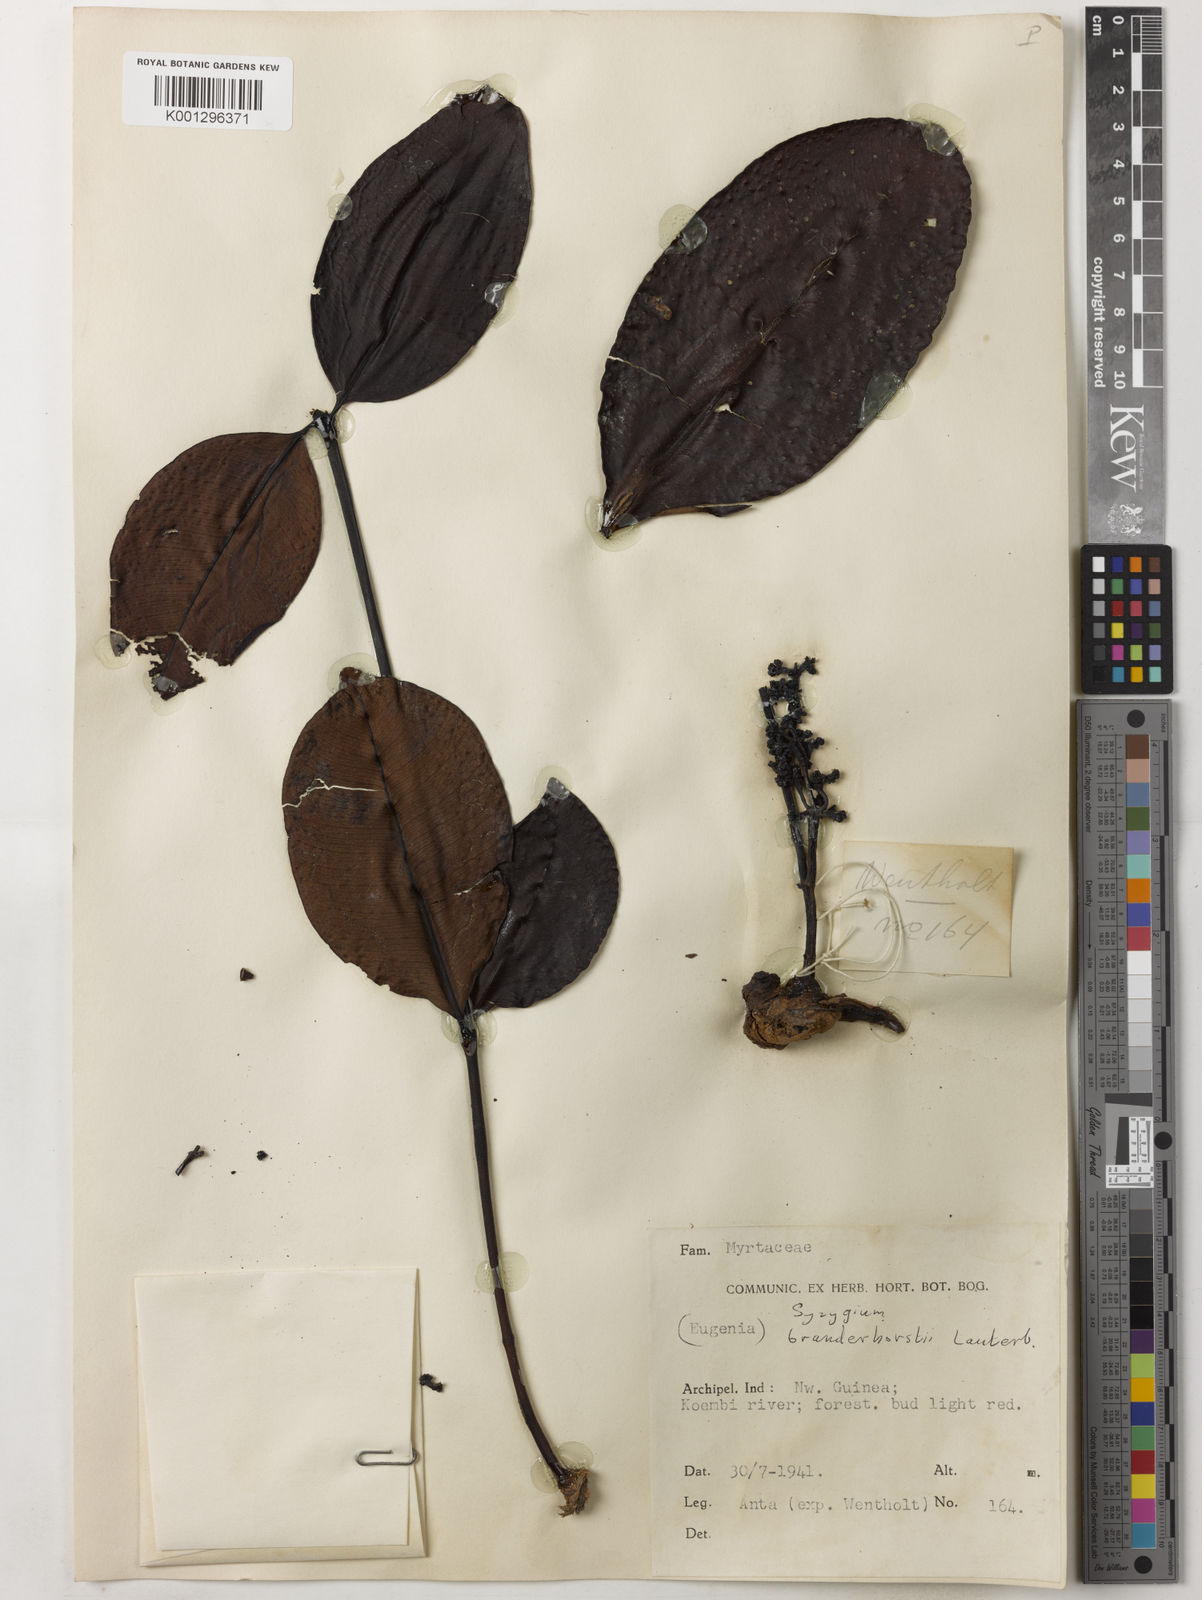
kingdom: Plantae
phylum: Tracheophyta
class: Magnoliopsida
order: Myrtales
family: Myrtaceae
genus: Syzygium
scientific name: Syzygium branderhorstii
